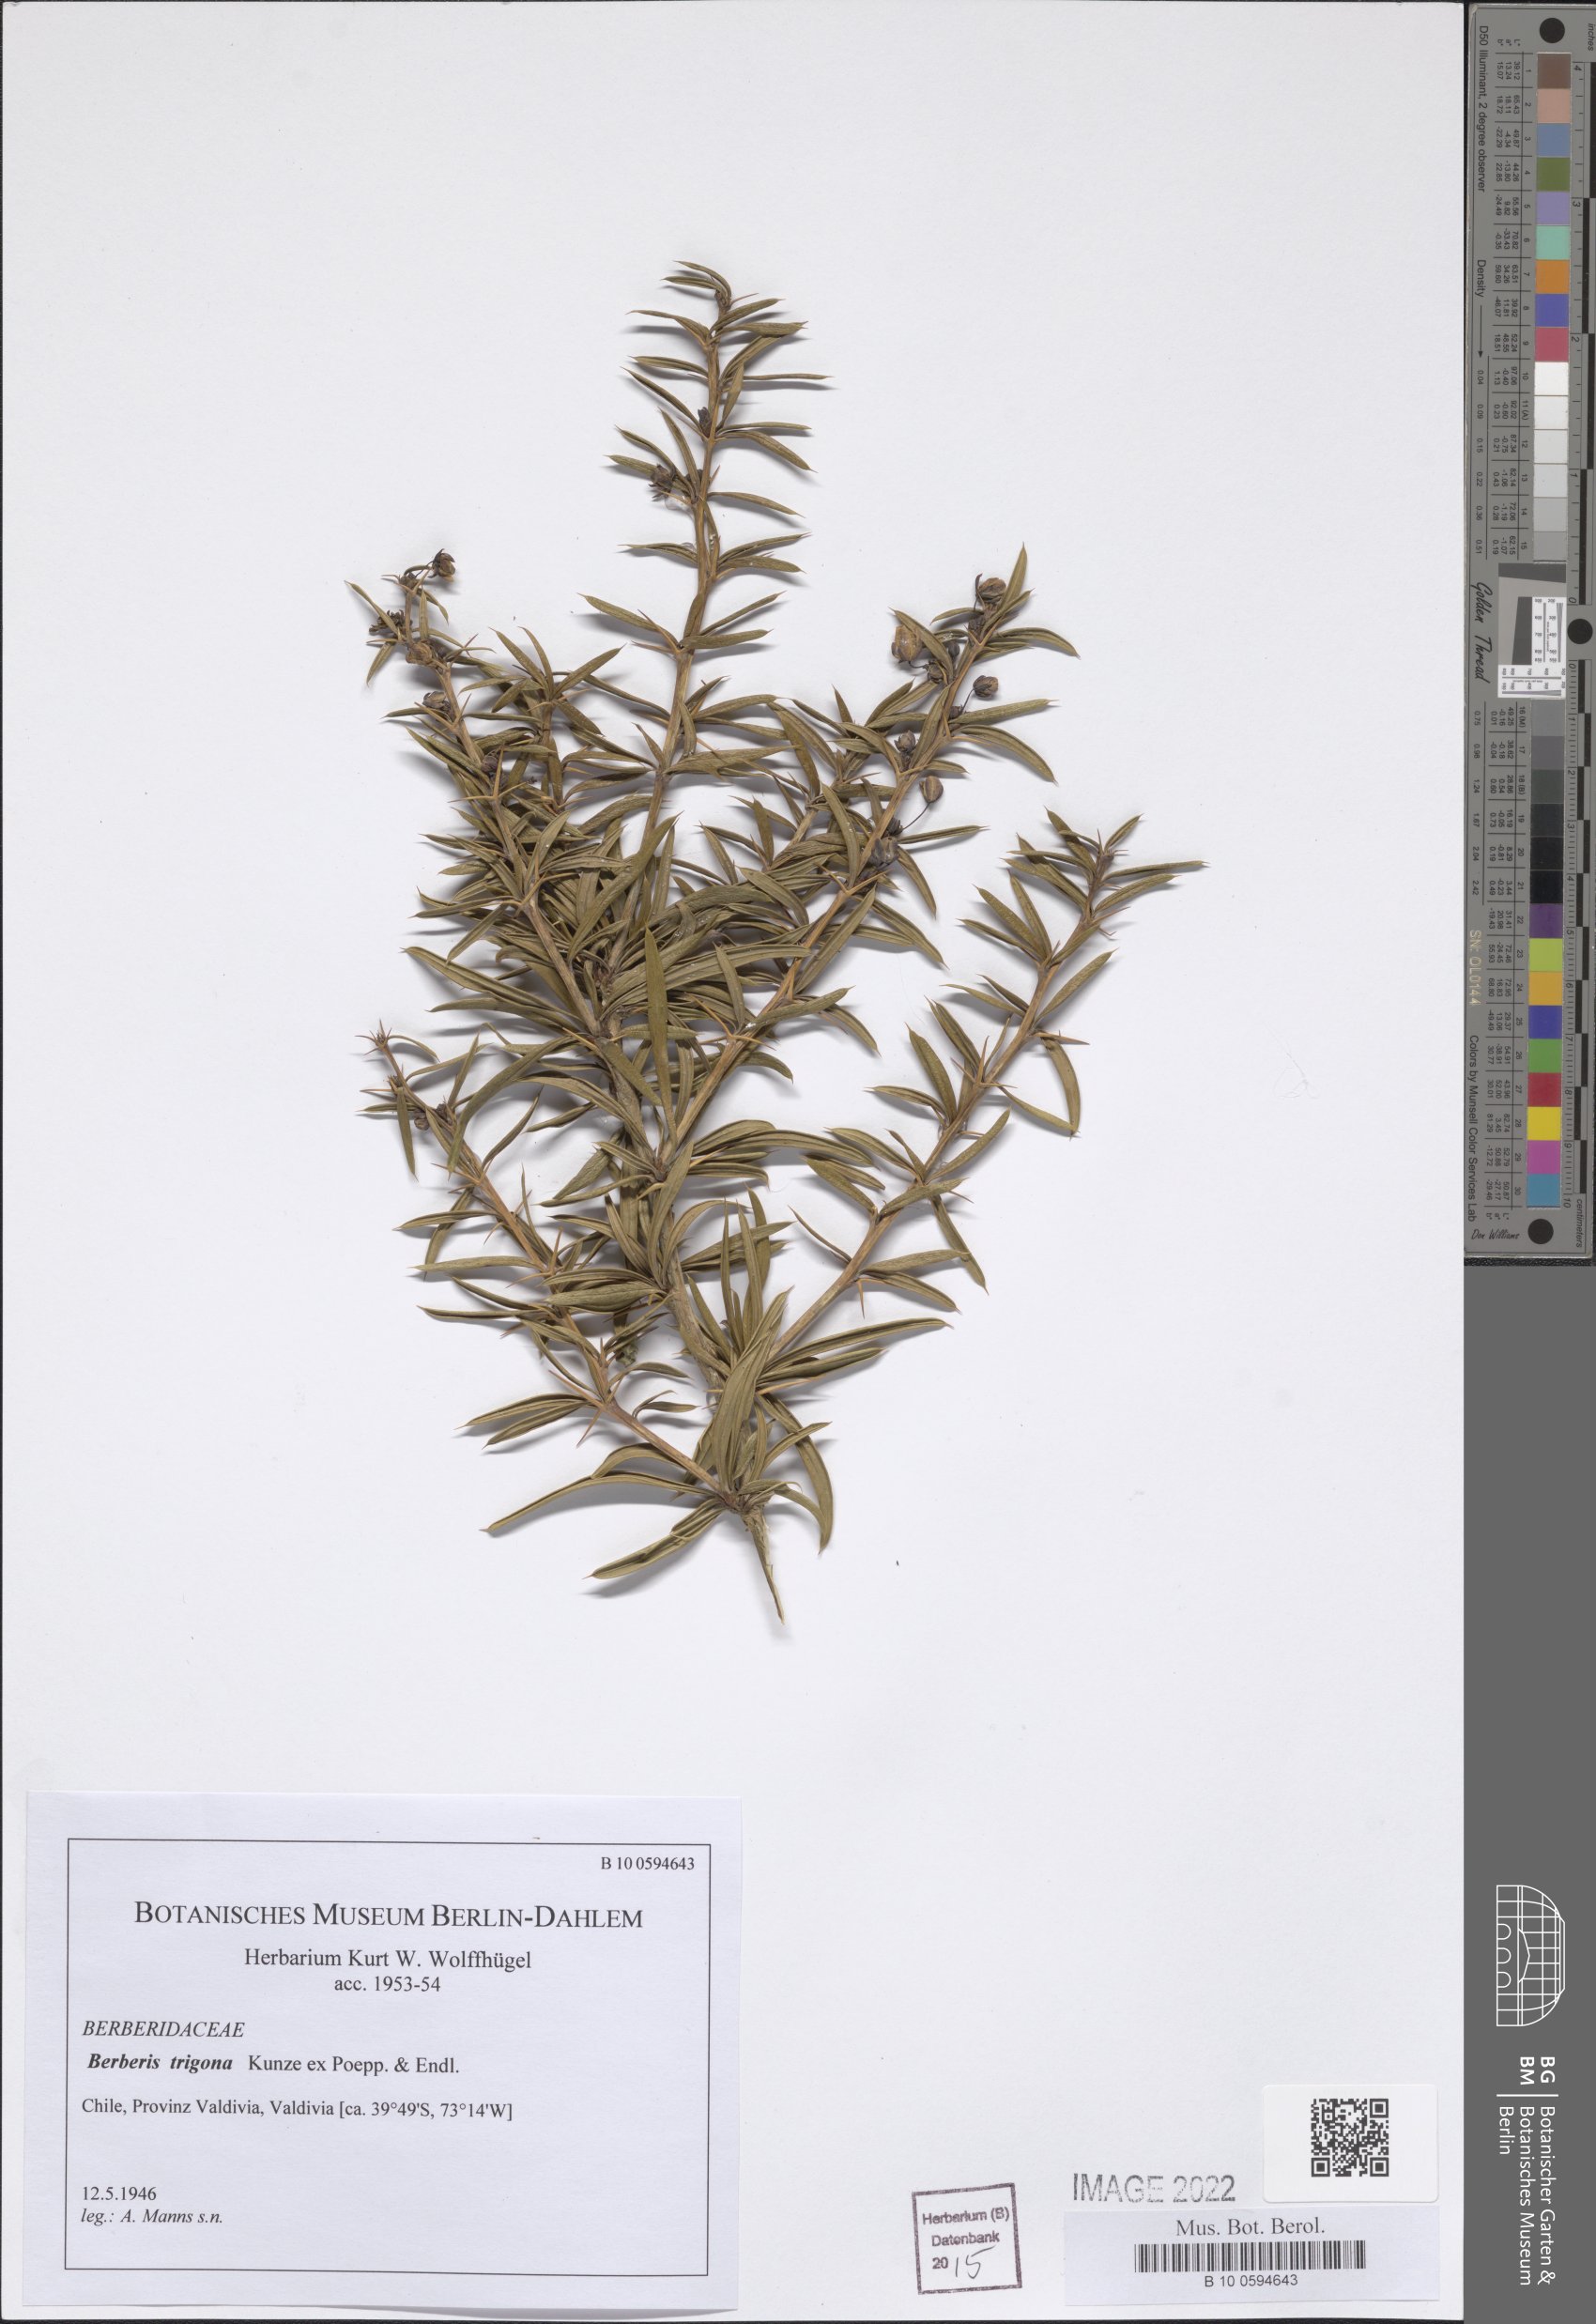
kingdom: Plantae
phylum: Tracheophyta
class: Magnoliopsida
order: Ranunculales
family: Berberidaceae
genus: Berberis
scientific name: Berberis trigona
